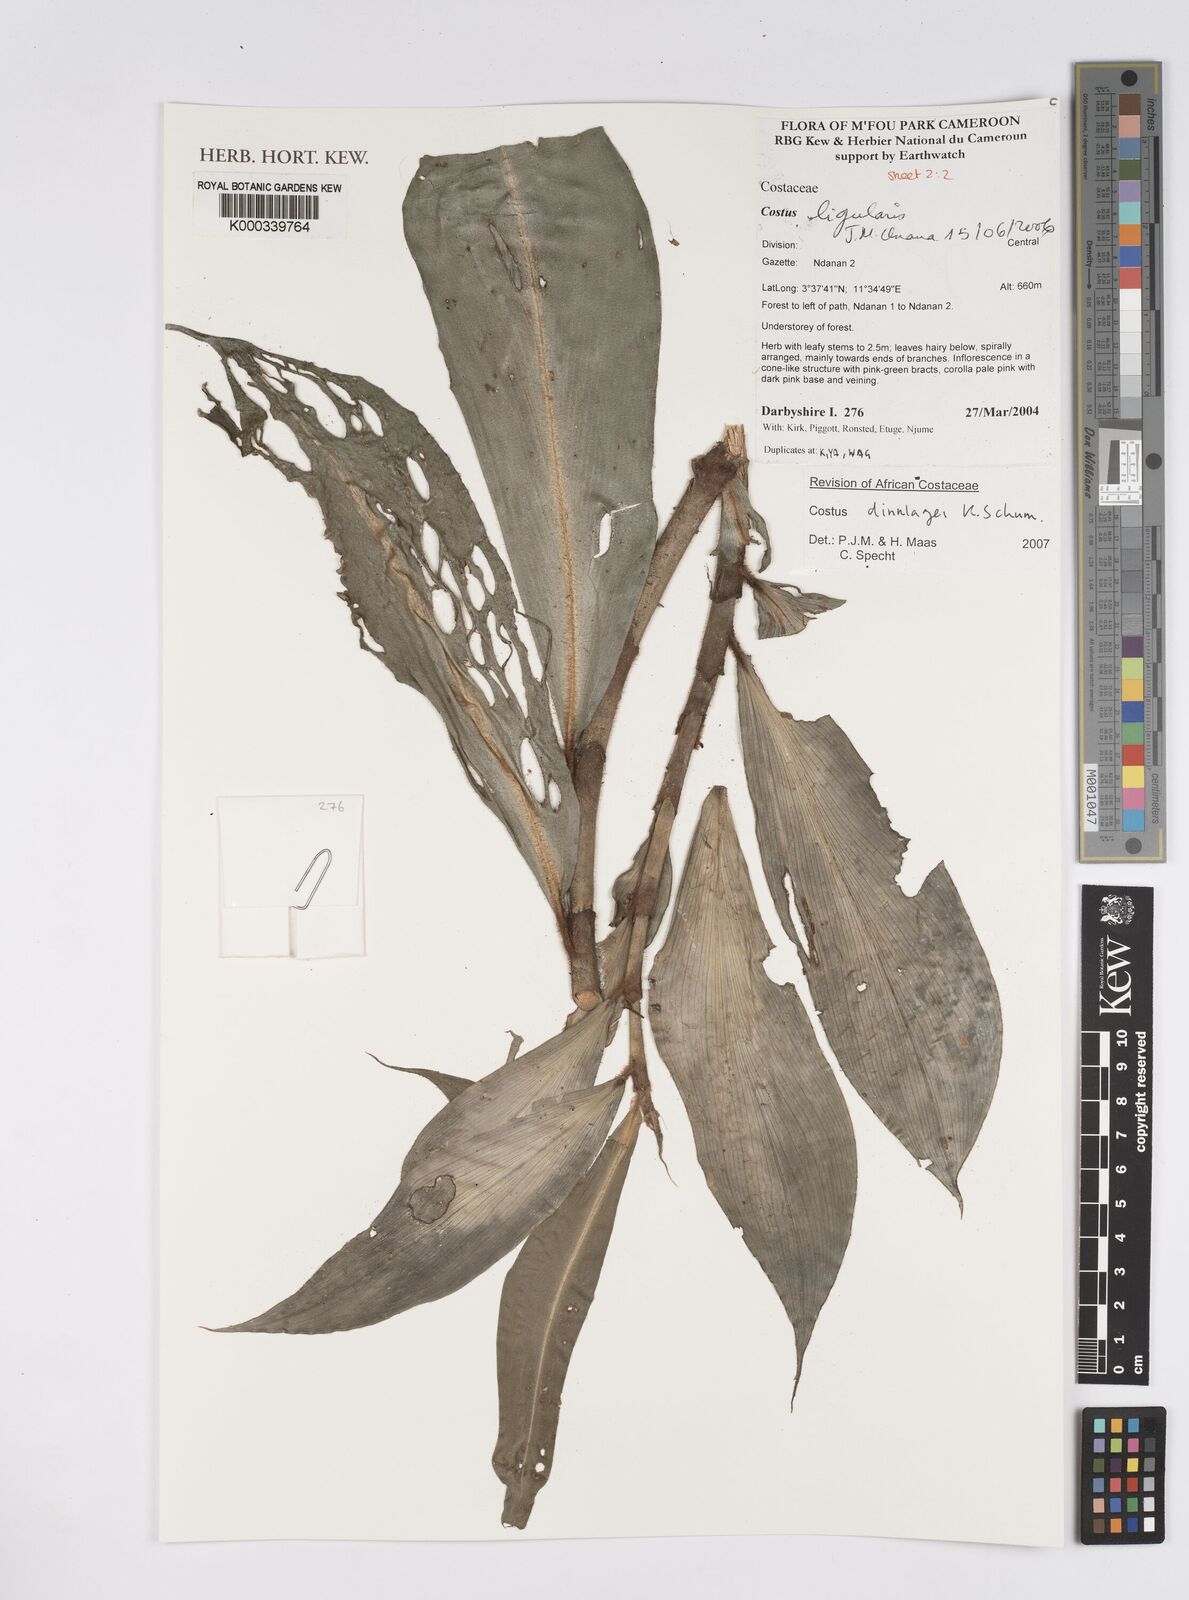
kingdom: Plantae
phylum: Tracheophyta
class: Liliopsida
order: Zingiberales
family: Costaceae
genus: Costus
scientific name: Costus dinklagei
